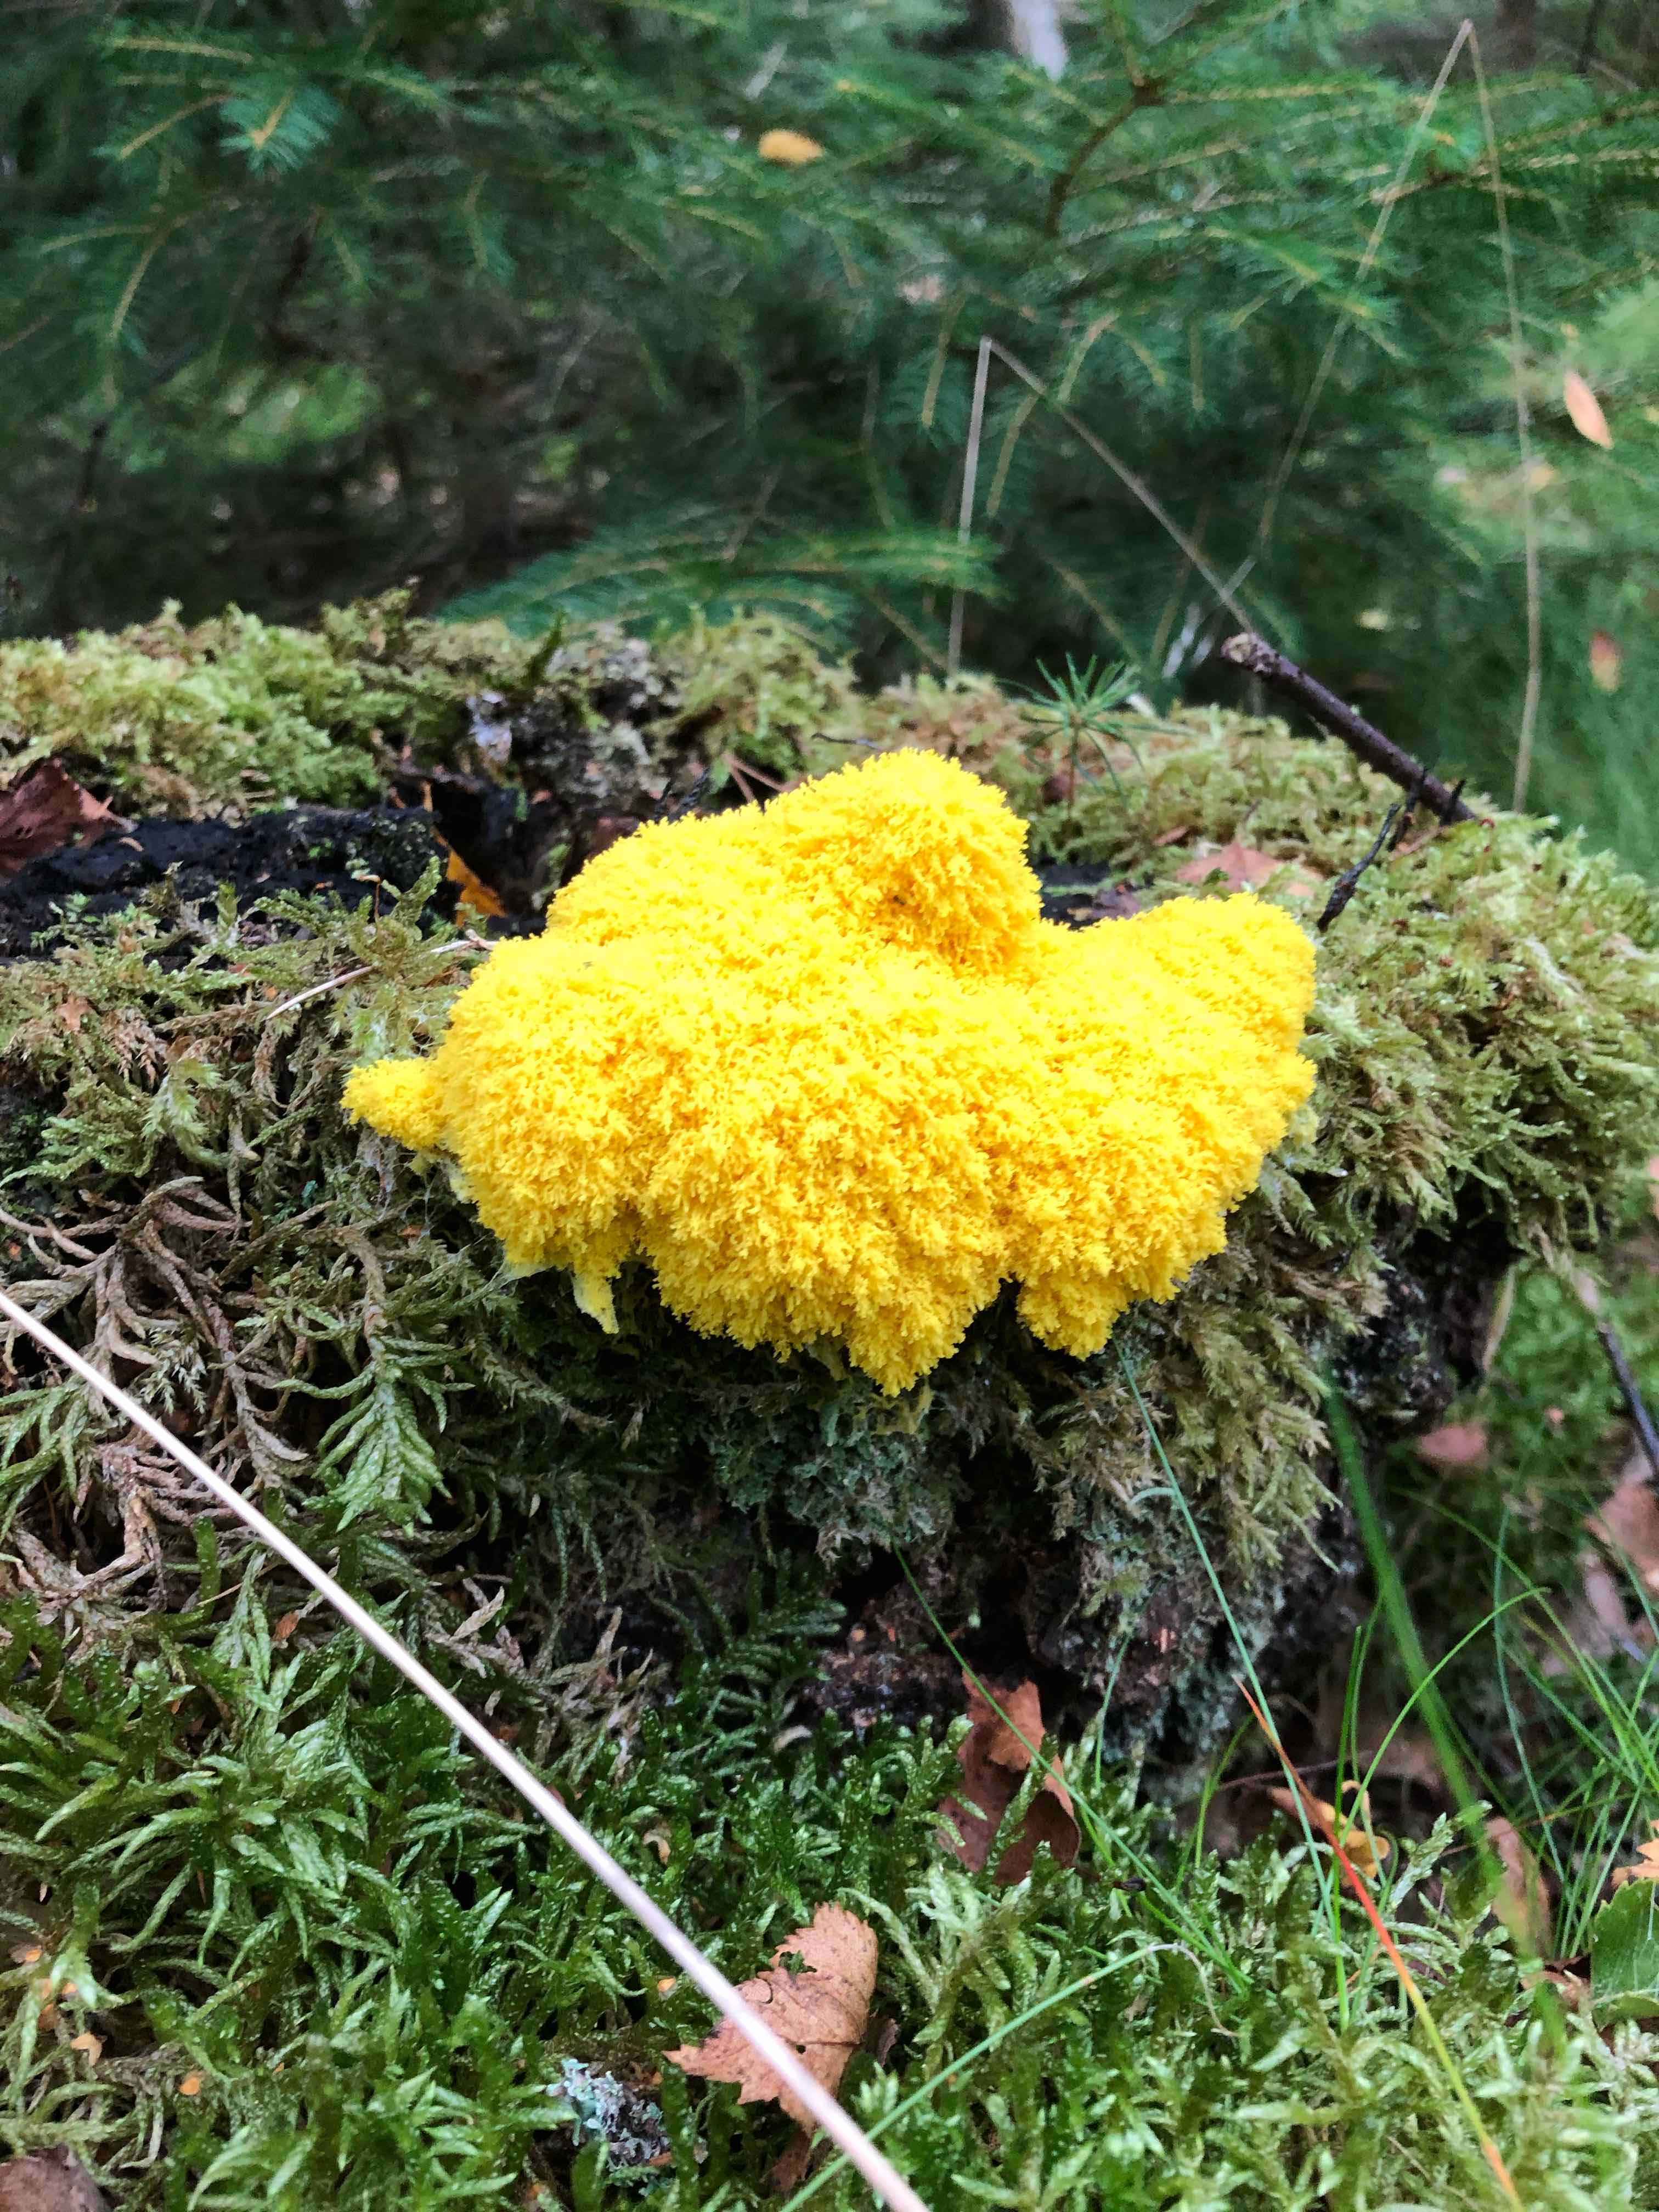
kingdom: Protozoa
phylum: Mycetozoa
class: Myxomycetes
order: Physarales
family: Physaraceae
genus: Fuligo
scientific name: Fuligo septica
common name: gul troldsmør
